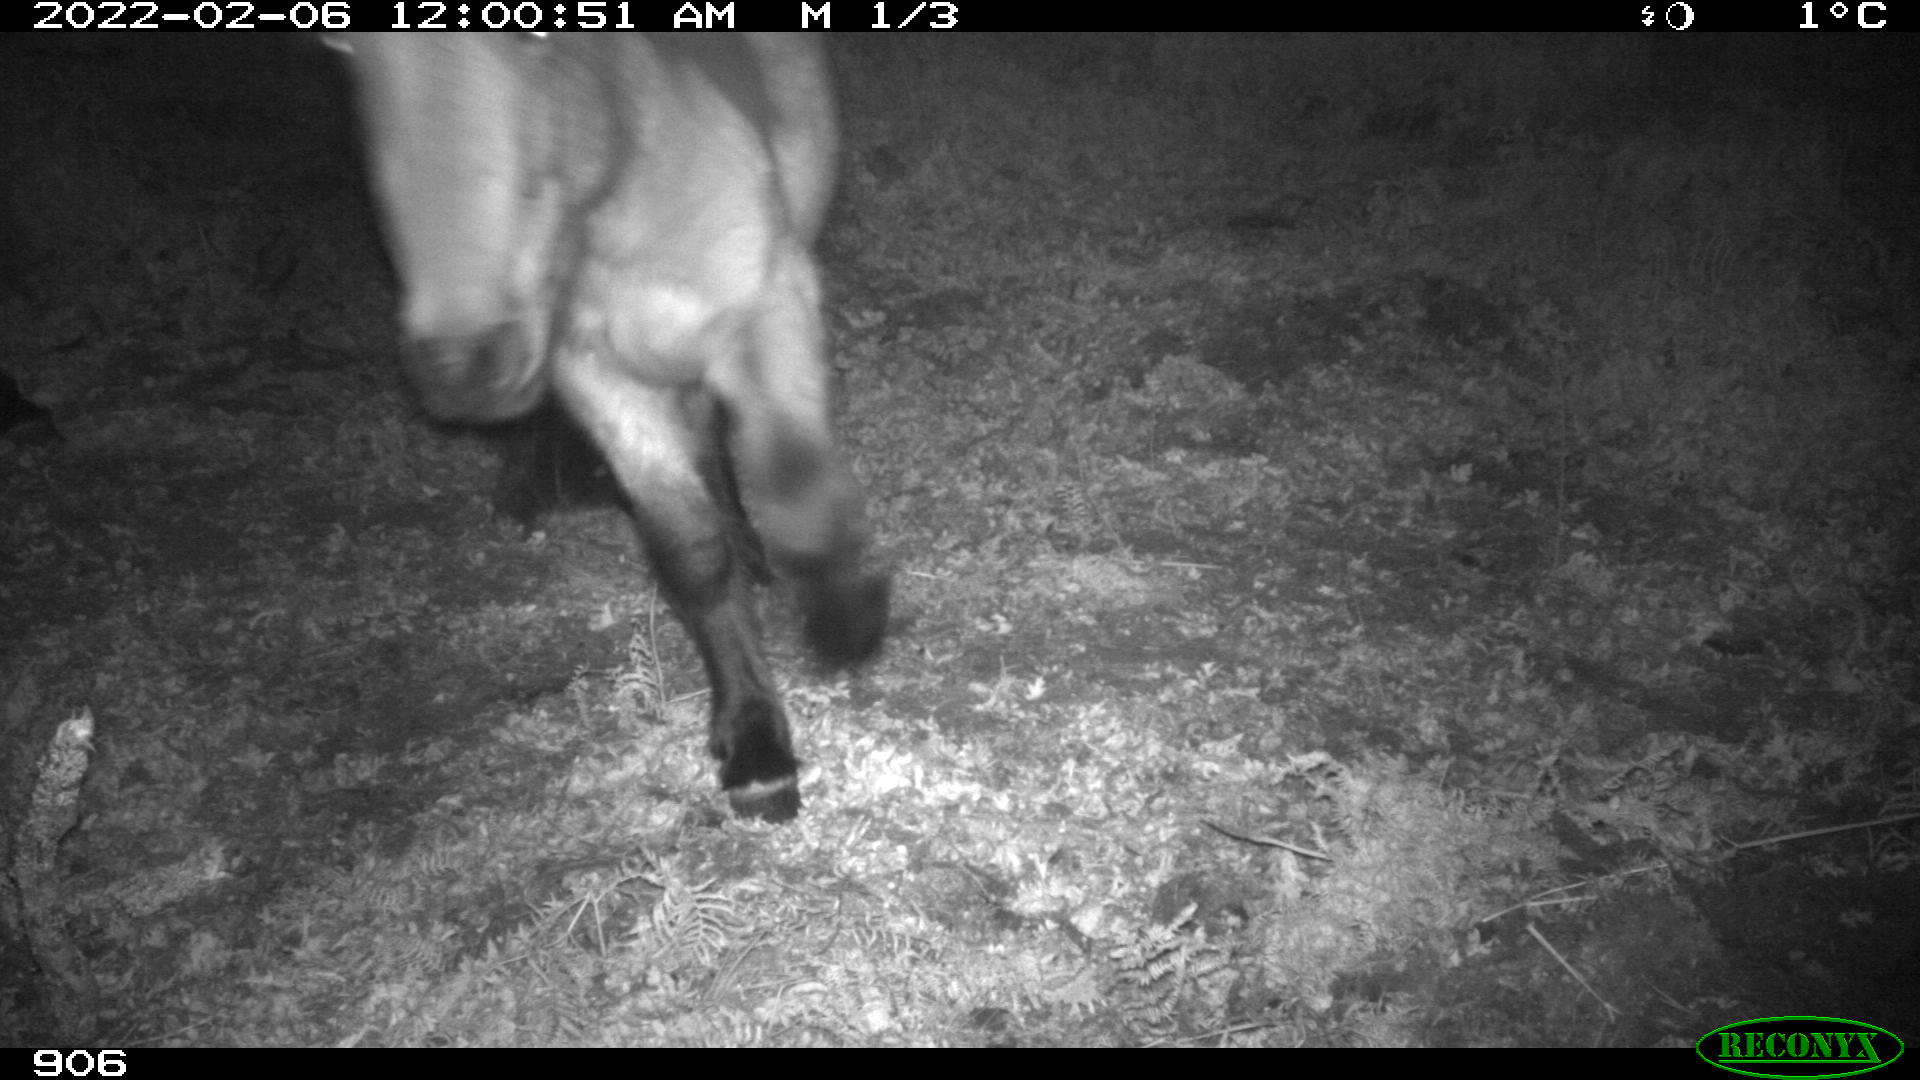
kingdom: Animalia
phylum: Chordata
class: Mammalia
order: Perissodactyla
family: Equidae
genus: Equus
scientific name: Equus caballus
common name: Horse
